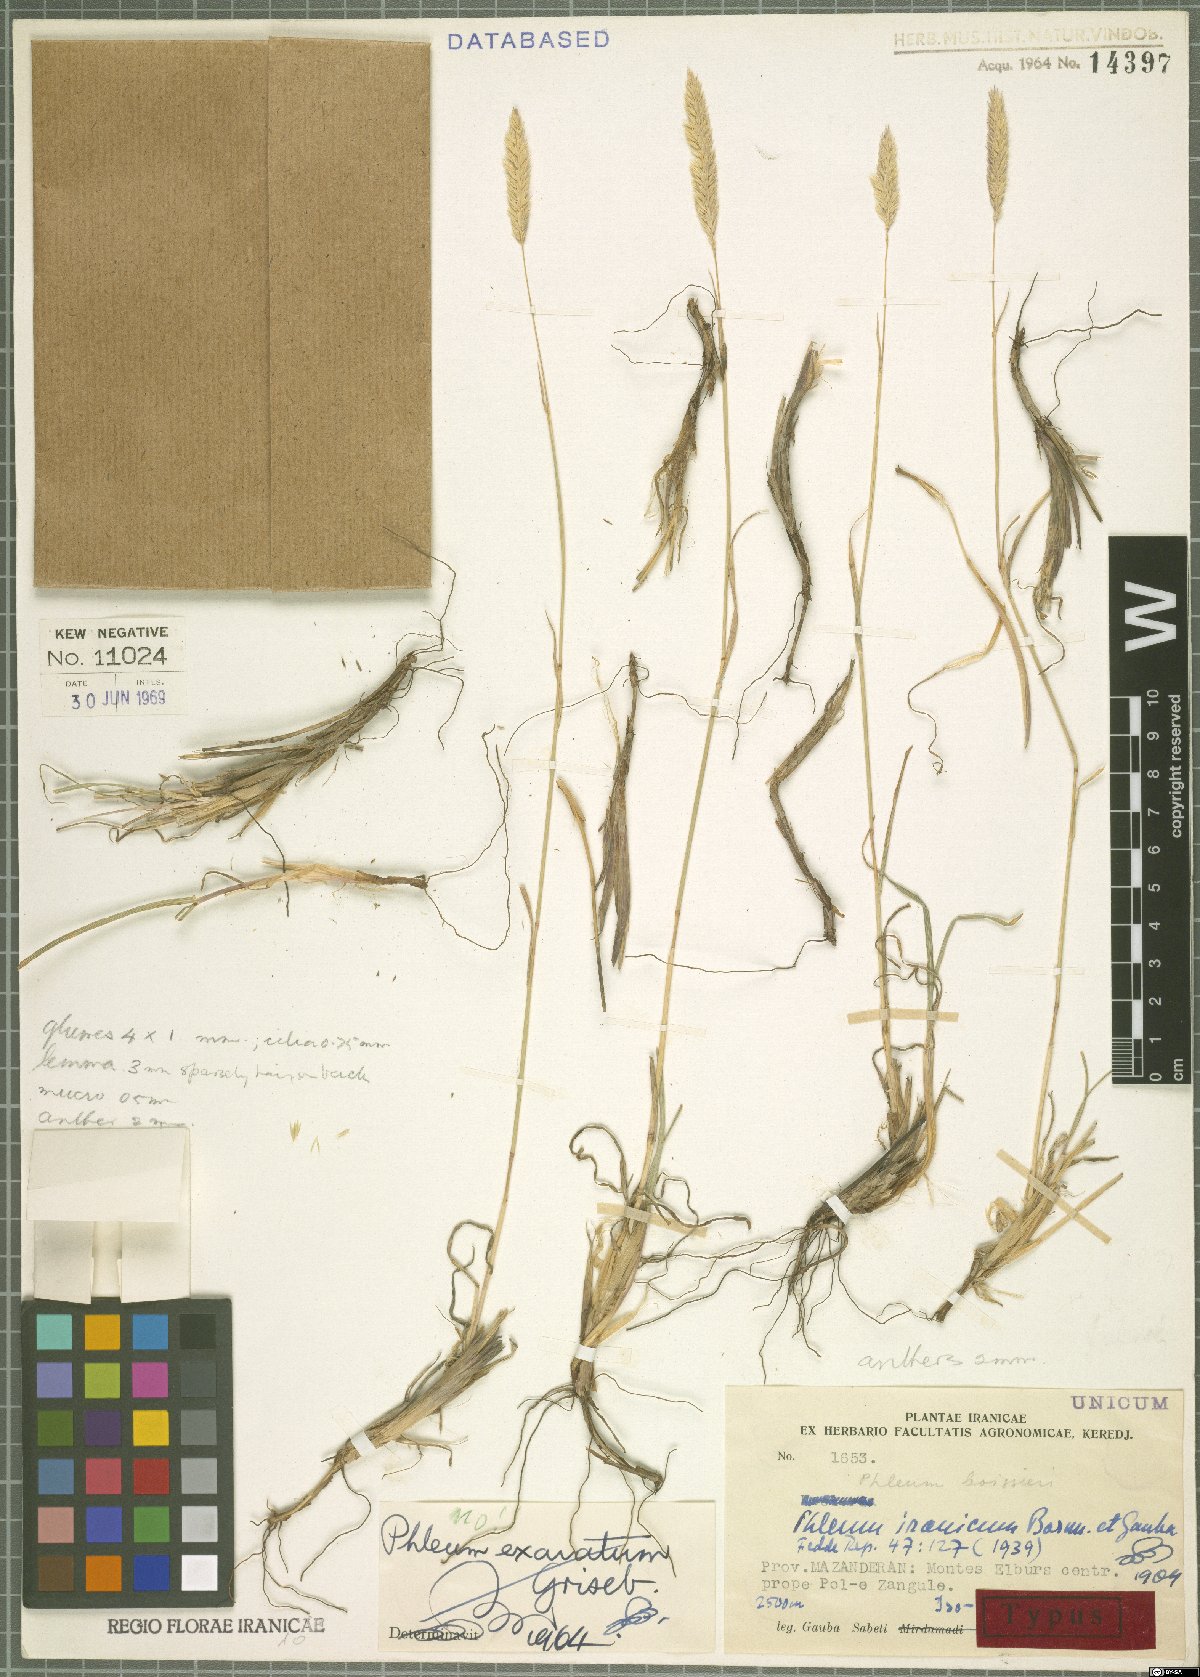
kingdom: Plantae
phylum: Tracheophyta
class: Liliopsida
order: Poales
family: Poaceae
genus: Phleum
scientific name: Phleum iranicum
